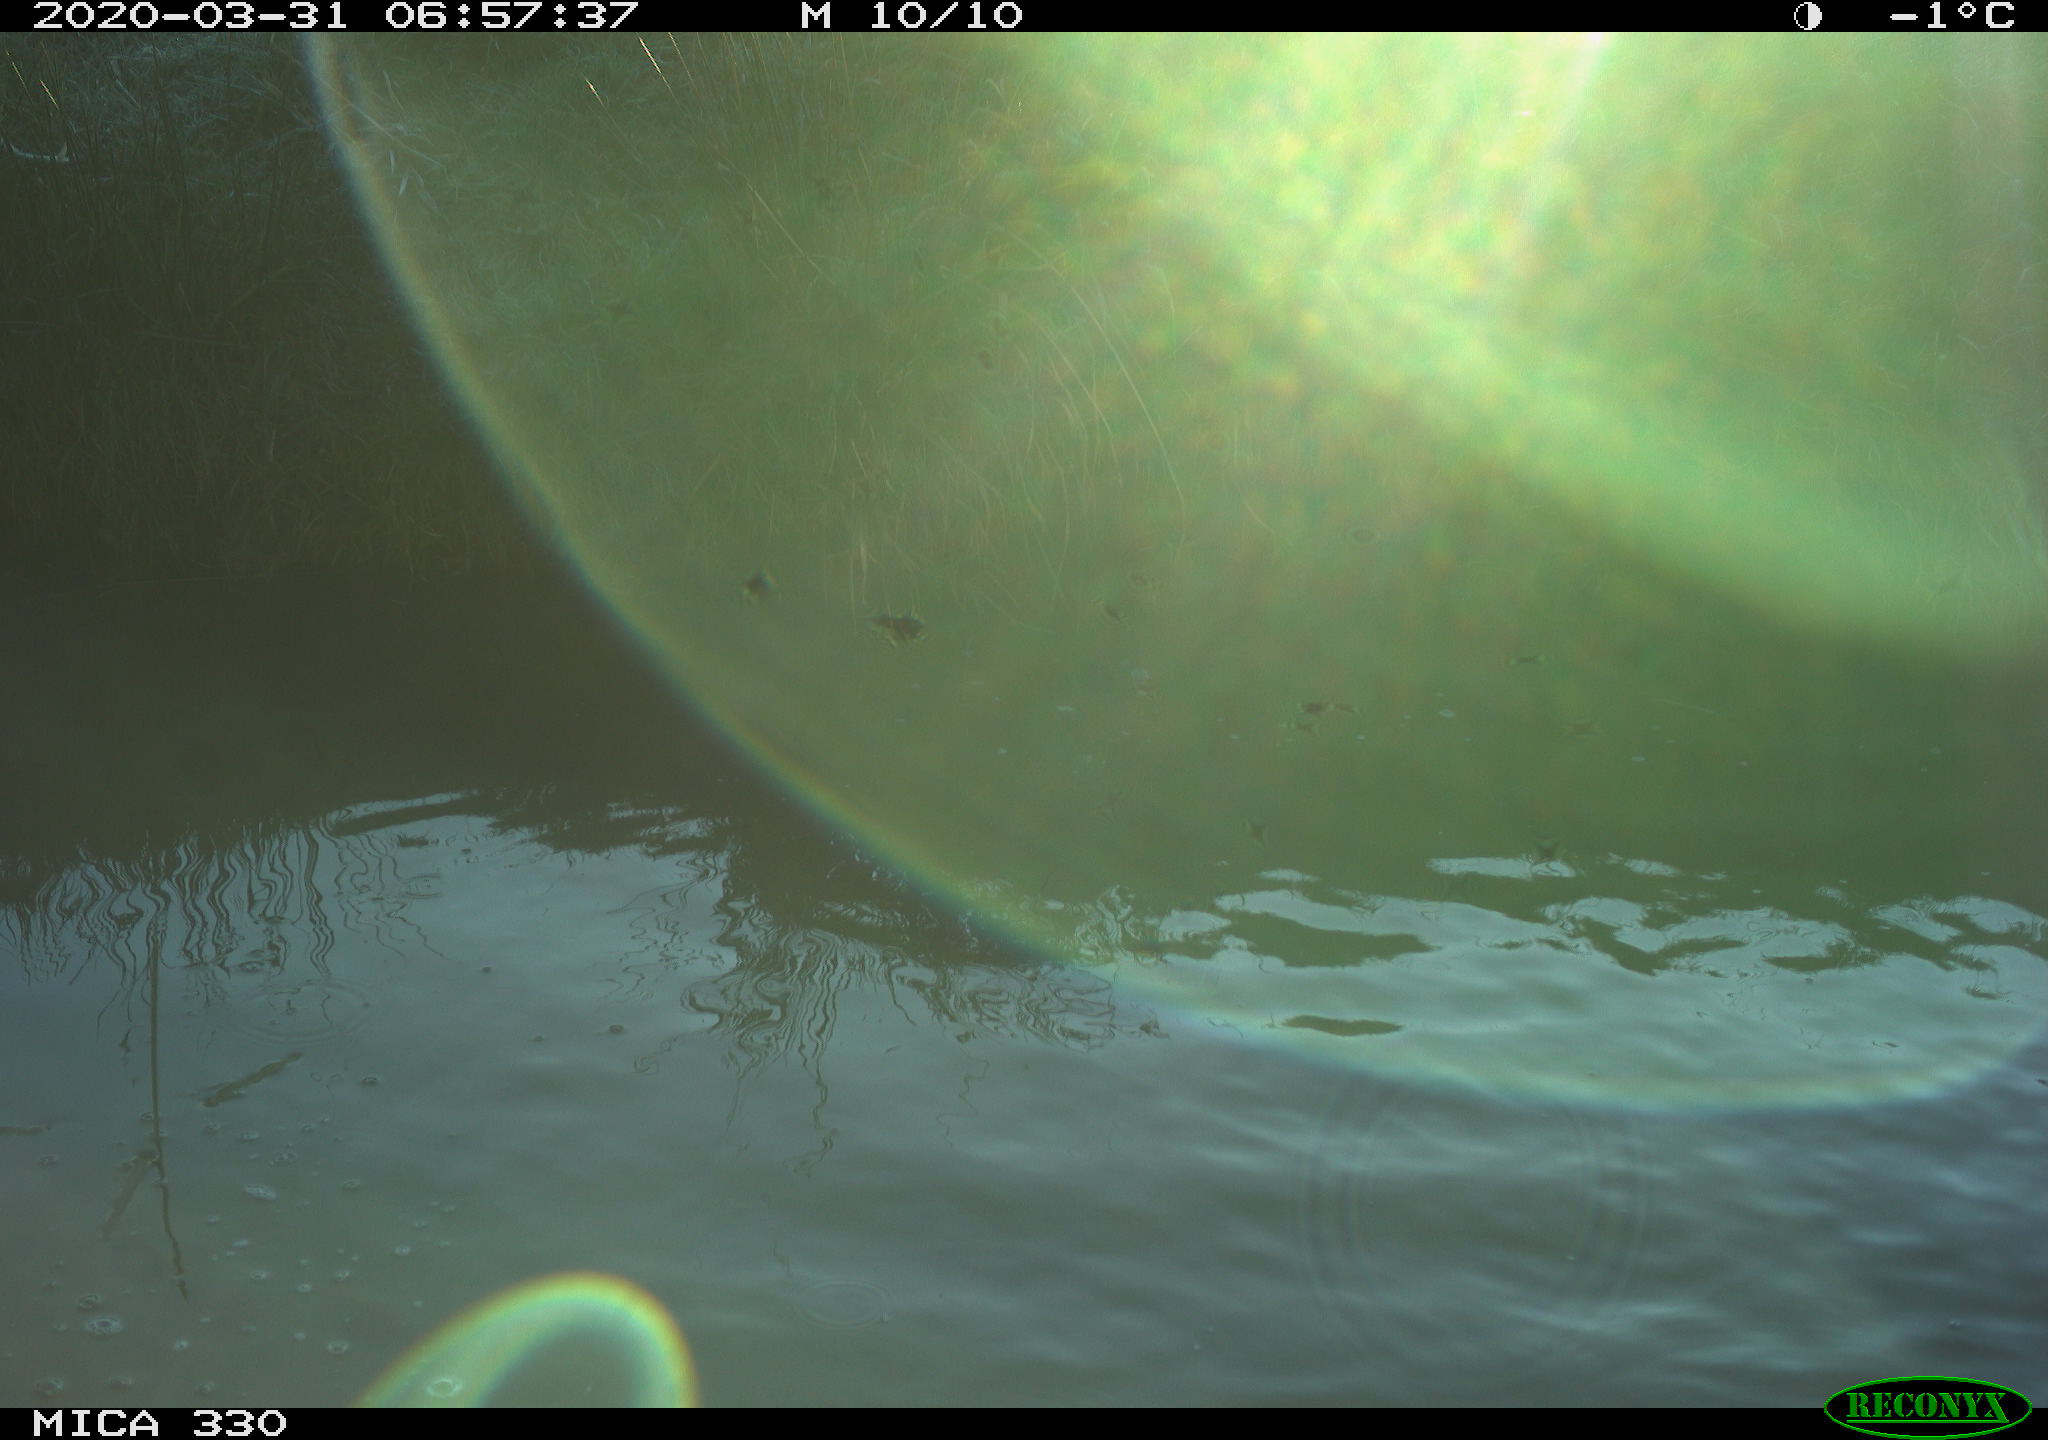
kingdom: Animalia
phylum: Chordata
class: Aves
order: Anseriformes
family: Anatidae
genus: Anas
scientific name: Anas platyrhynchos
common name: Mallard
